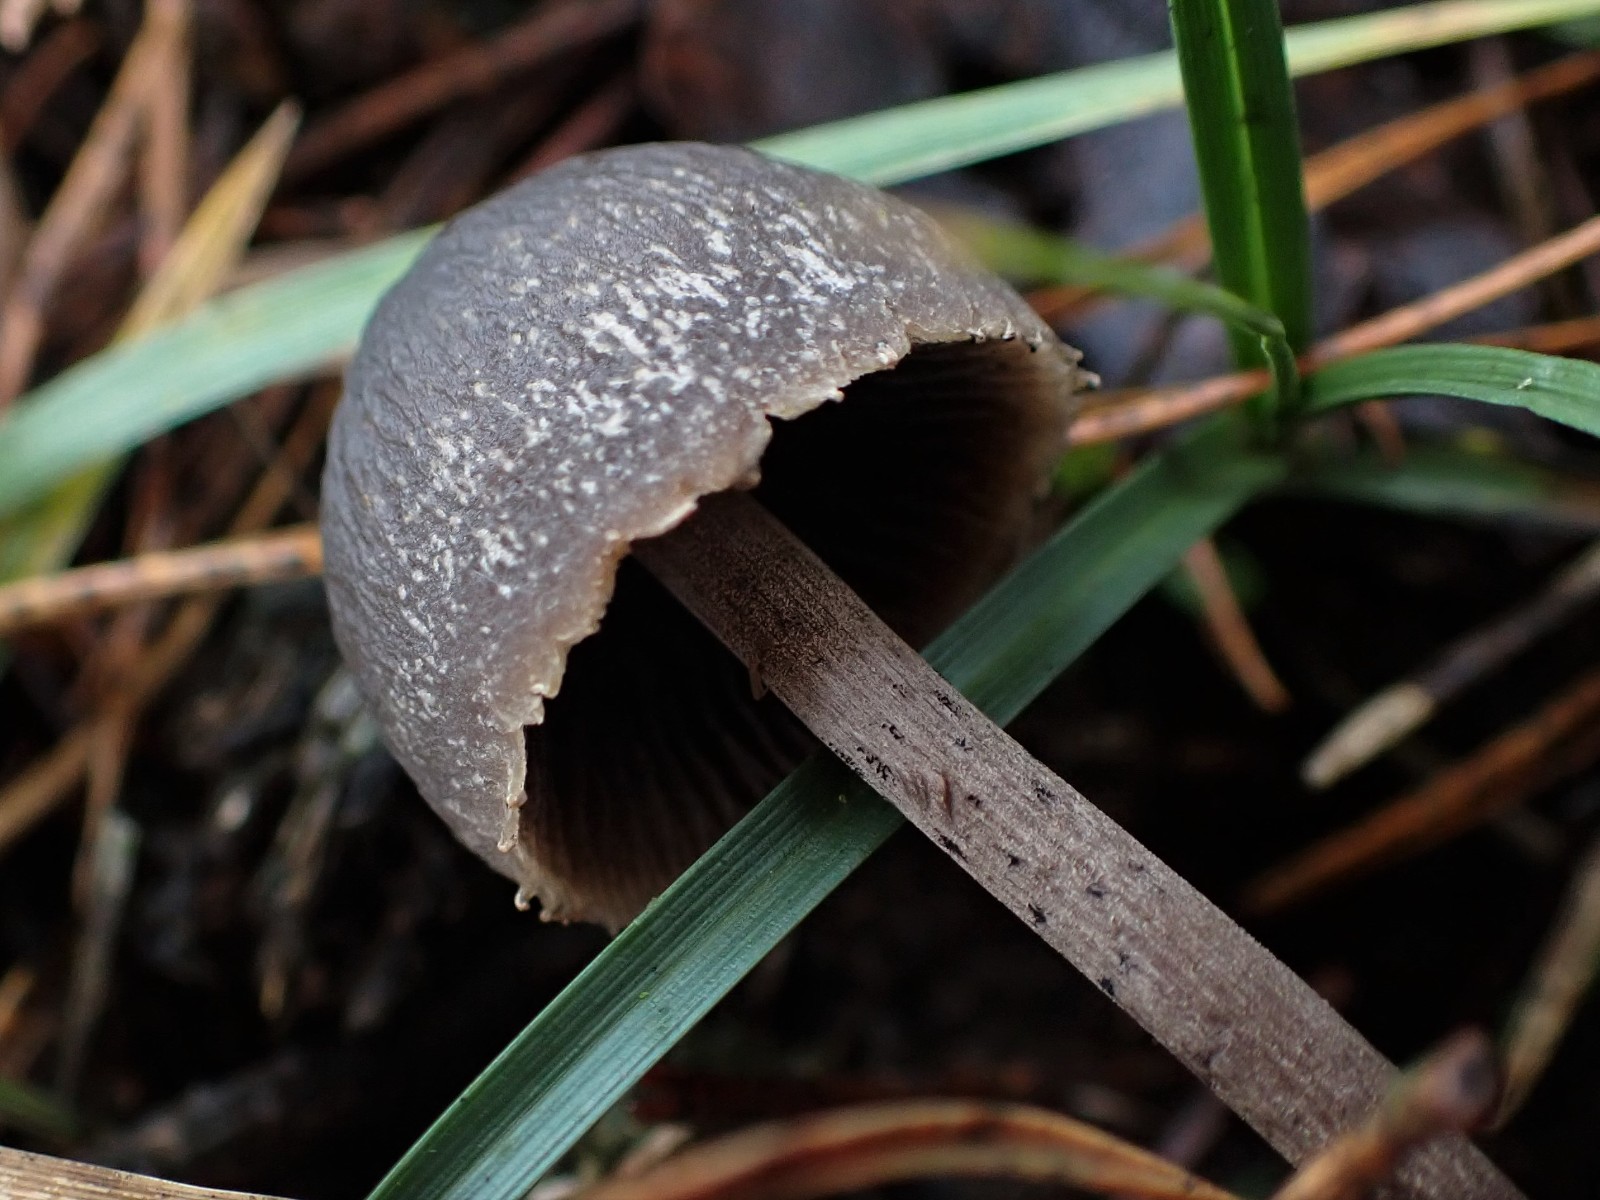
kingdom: Fungi
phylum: Basidiomycota
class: Agaricomycetes
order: Agaricales
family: Bolbitiaceae
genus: Panaeolus
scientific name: Panaeolus papilionaceus
